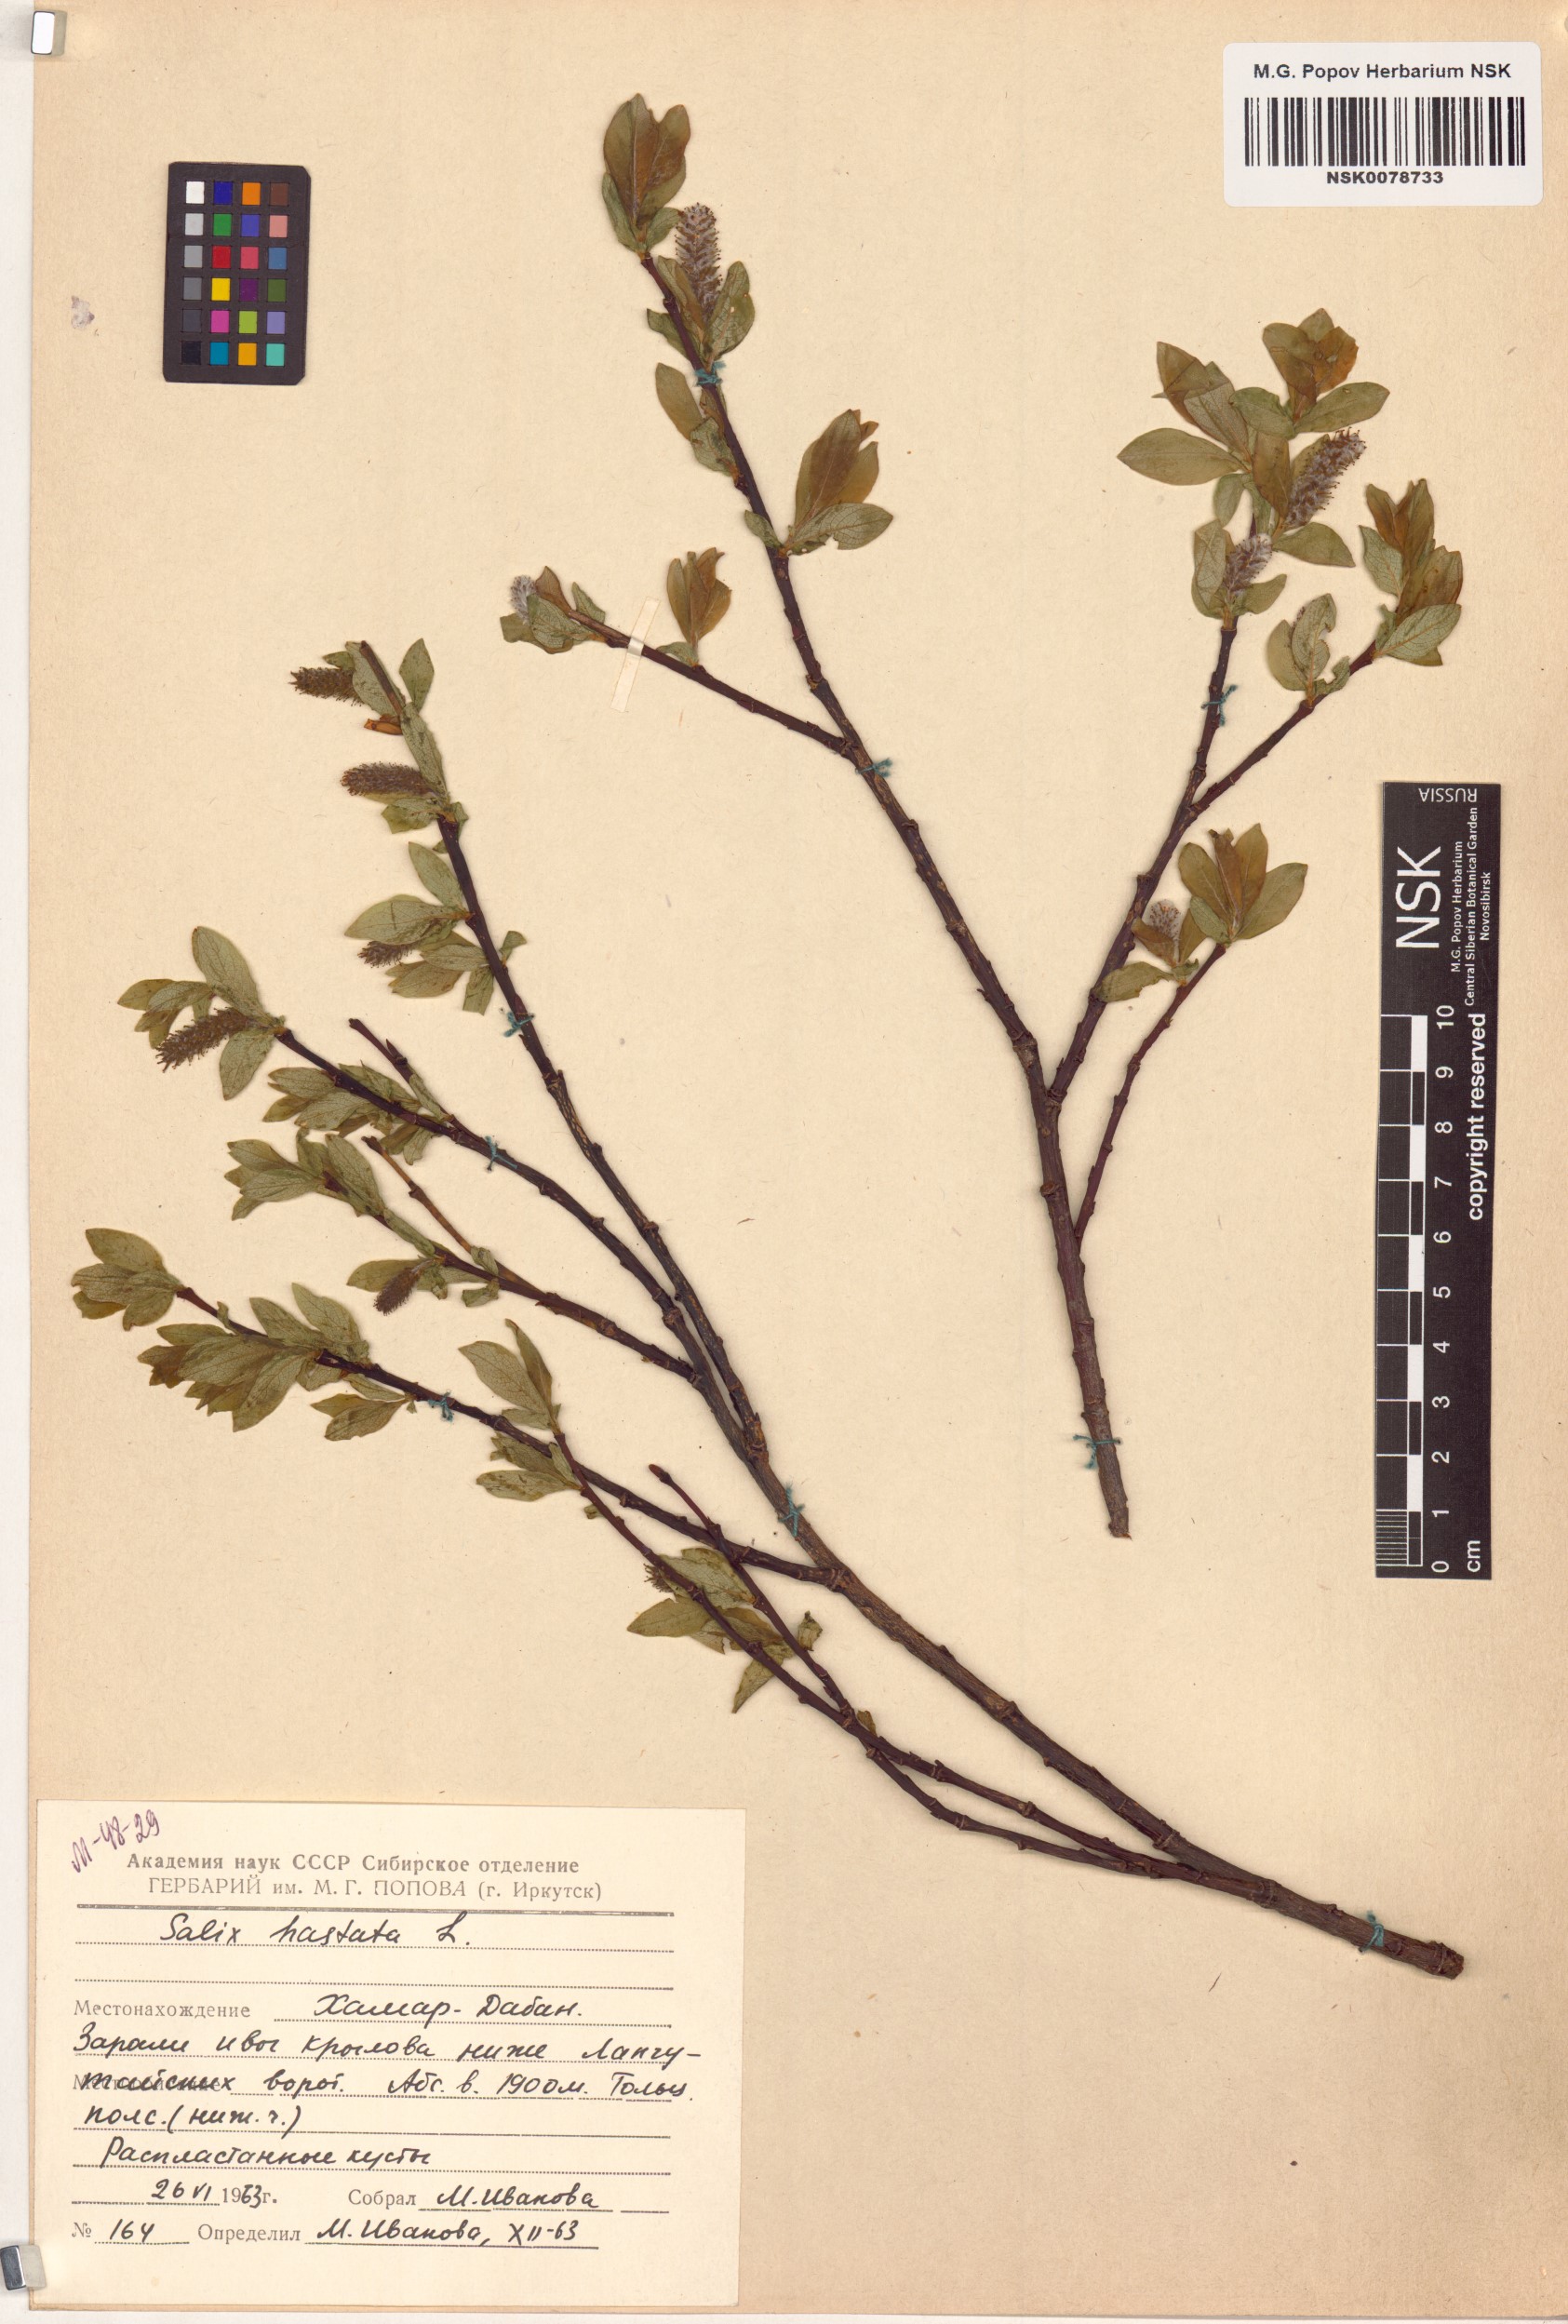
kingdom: Plantae
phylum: Tracheophyta
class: Magnoliopsida
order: Malpighiales
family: Salicaceae
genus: Salix
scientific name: Salix hastata
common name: Halberd willow
